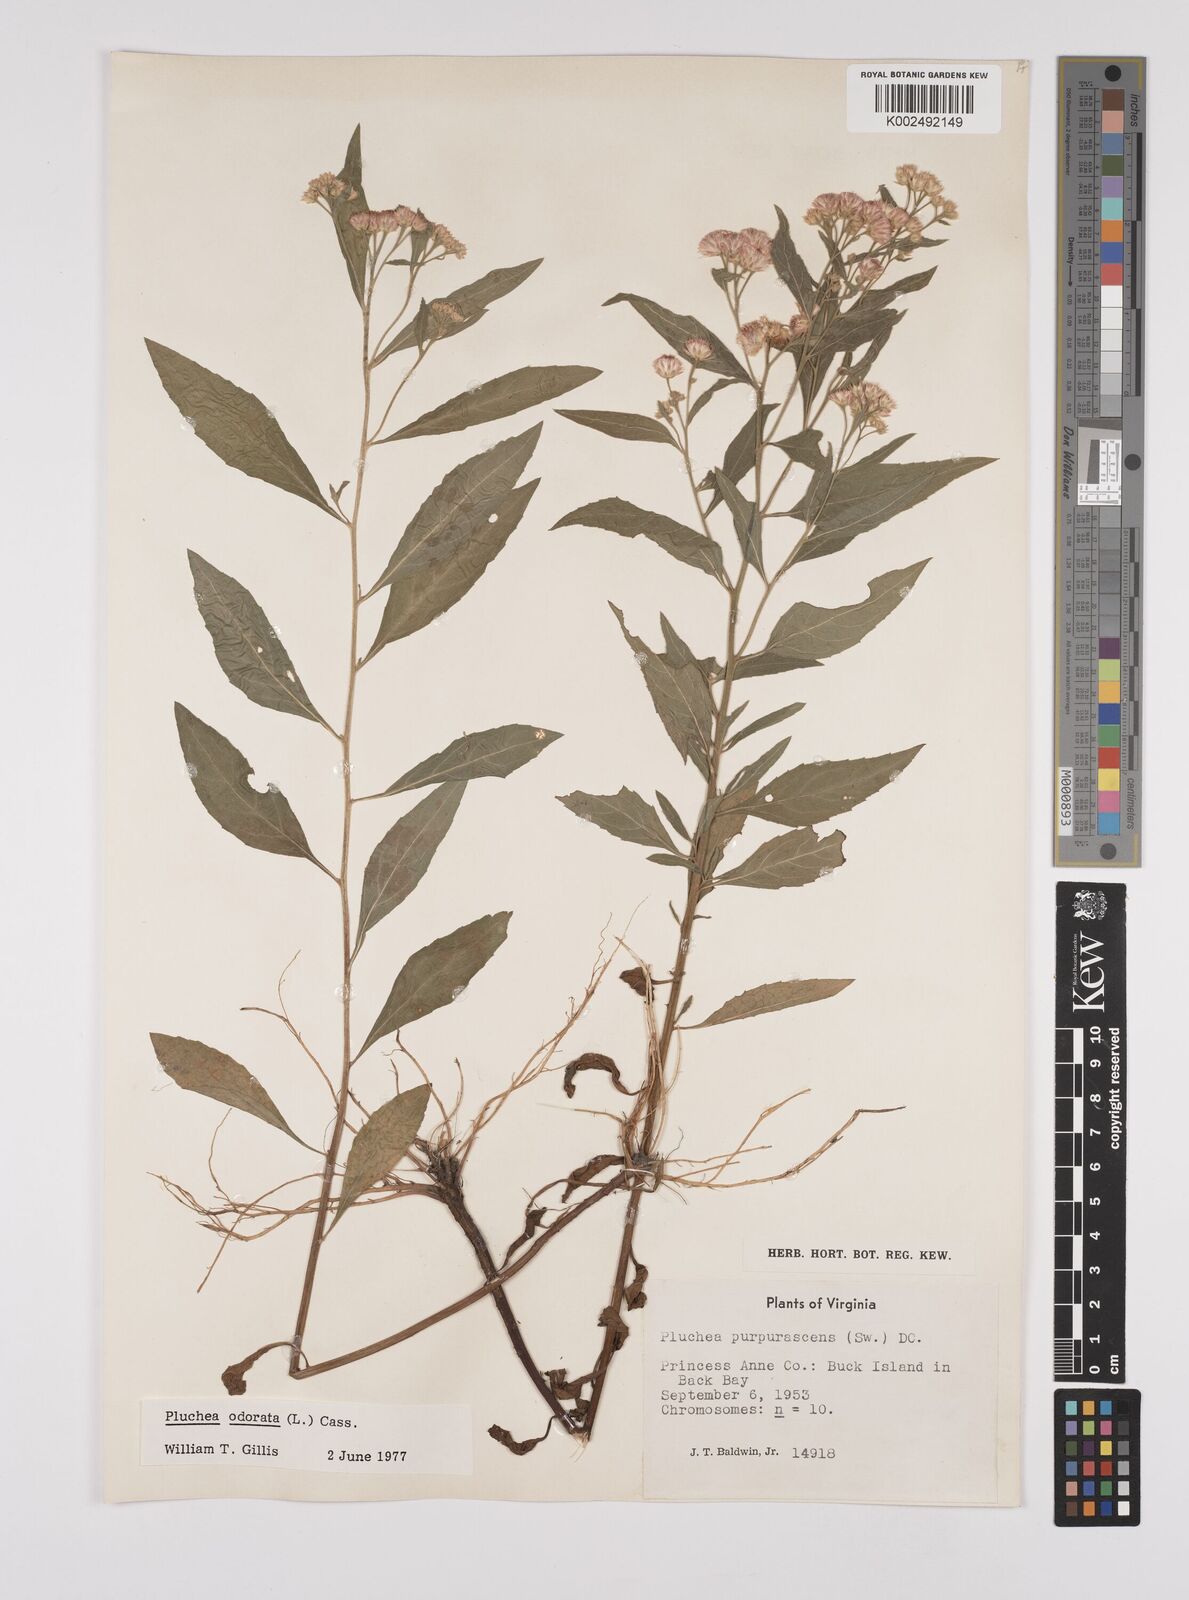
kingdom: Plantae
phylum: Tracheophyta
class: Magnoliopsida
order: Asterales
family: Asteraceae
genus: Pluchea
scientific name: Pluchea odorata
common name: Saltmarsh fleabane
